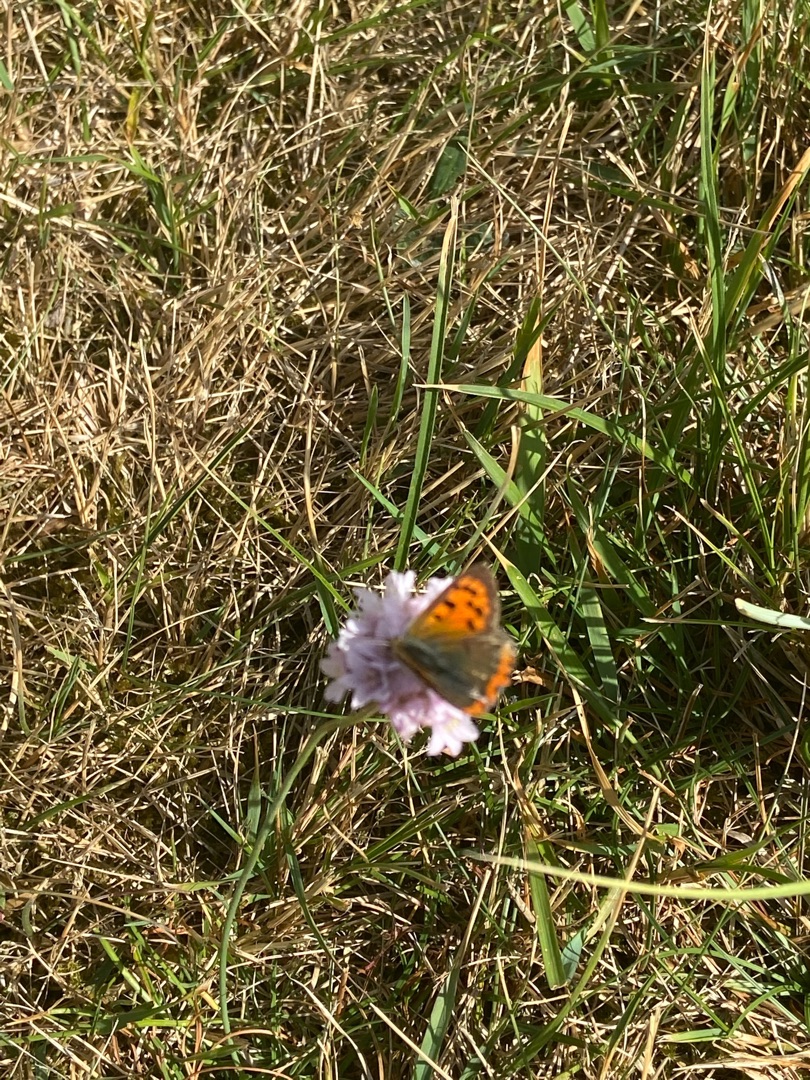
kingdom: Animalia
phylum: Arthropoda
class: Insecta
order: Lepidoptera
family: Lycaenidae
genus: Lycaena
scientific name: Lycaena phlaeas
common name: Lille ildfugl
